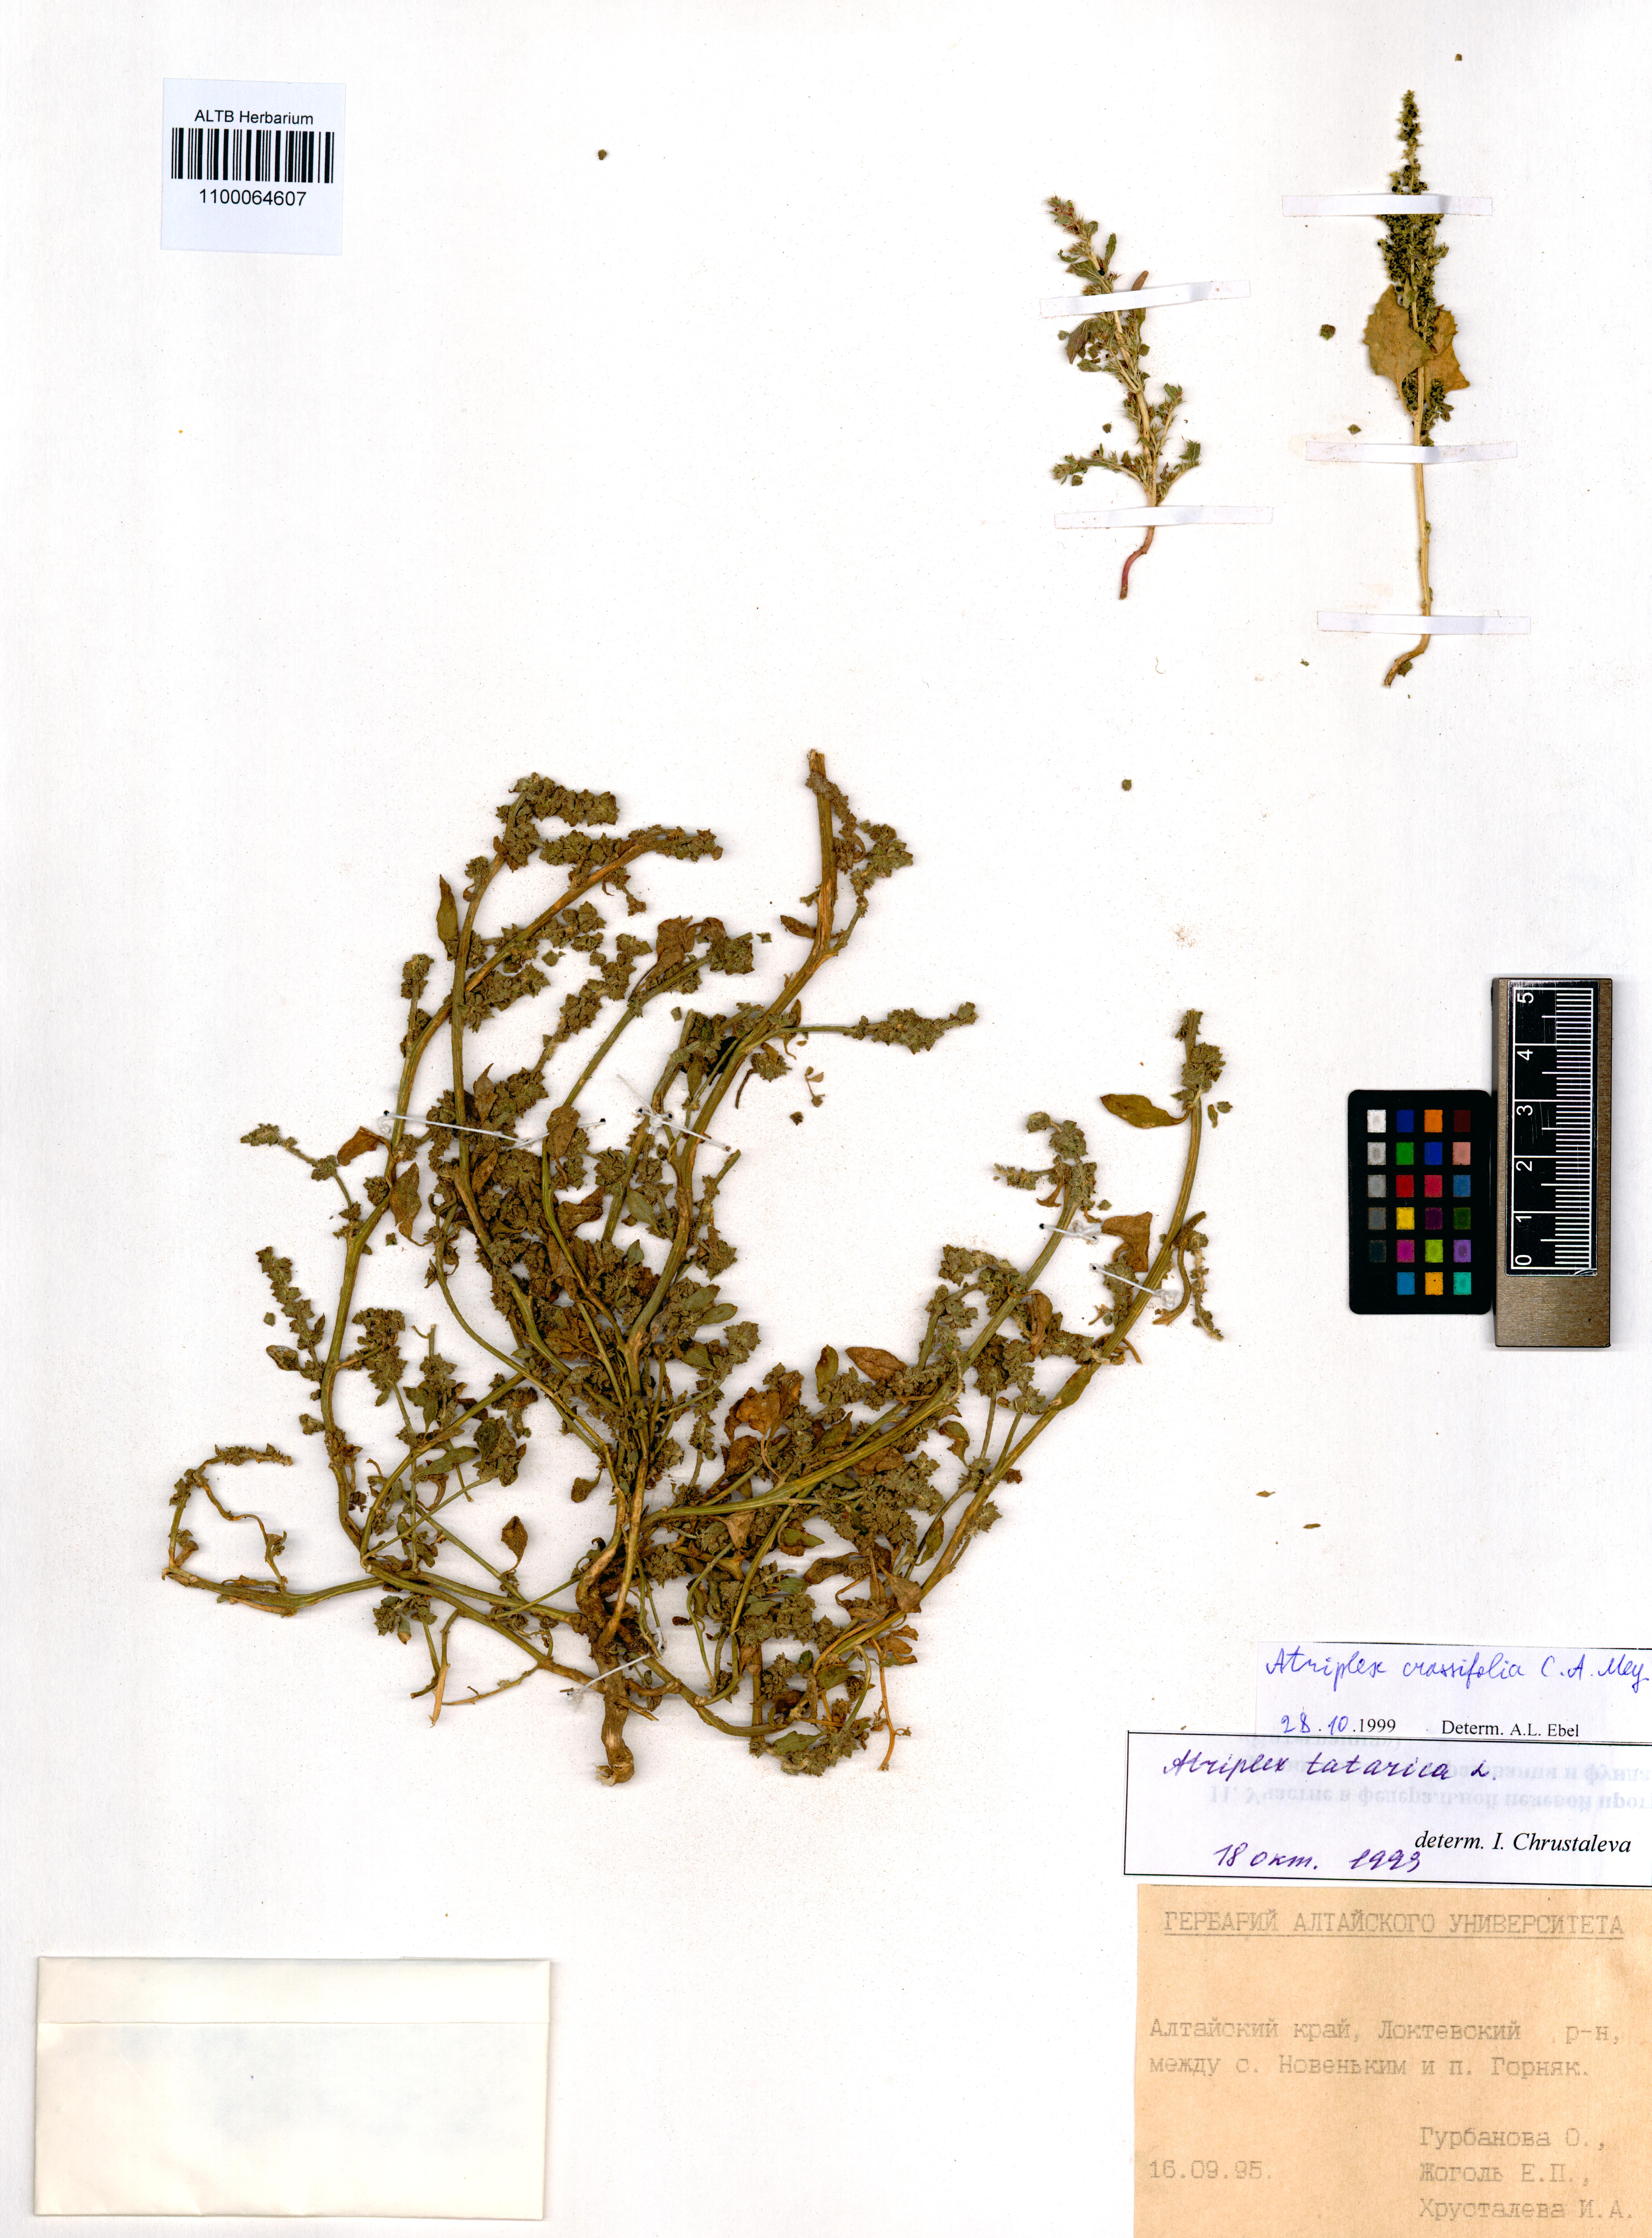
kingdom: Plantae
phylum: Tracheophyta
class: Magnoliopsida
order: Caryophyllales
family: Amaranthaceae
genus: Atriplex
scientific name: Atriplex crassifolia
